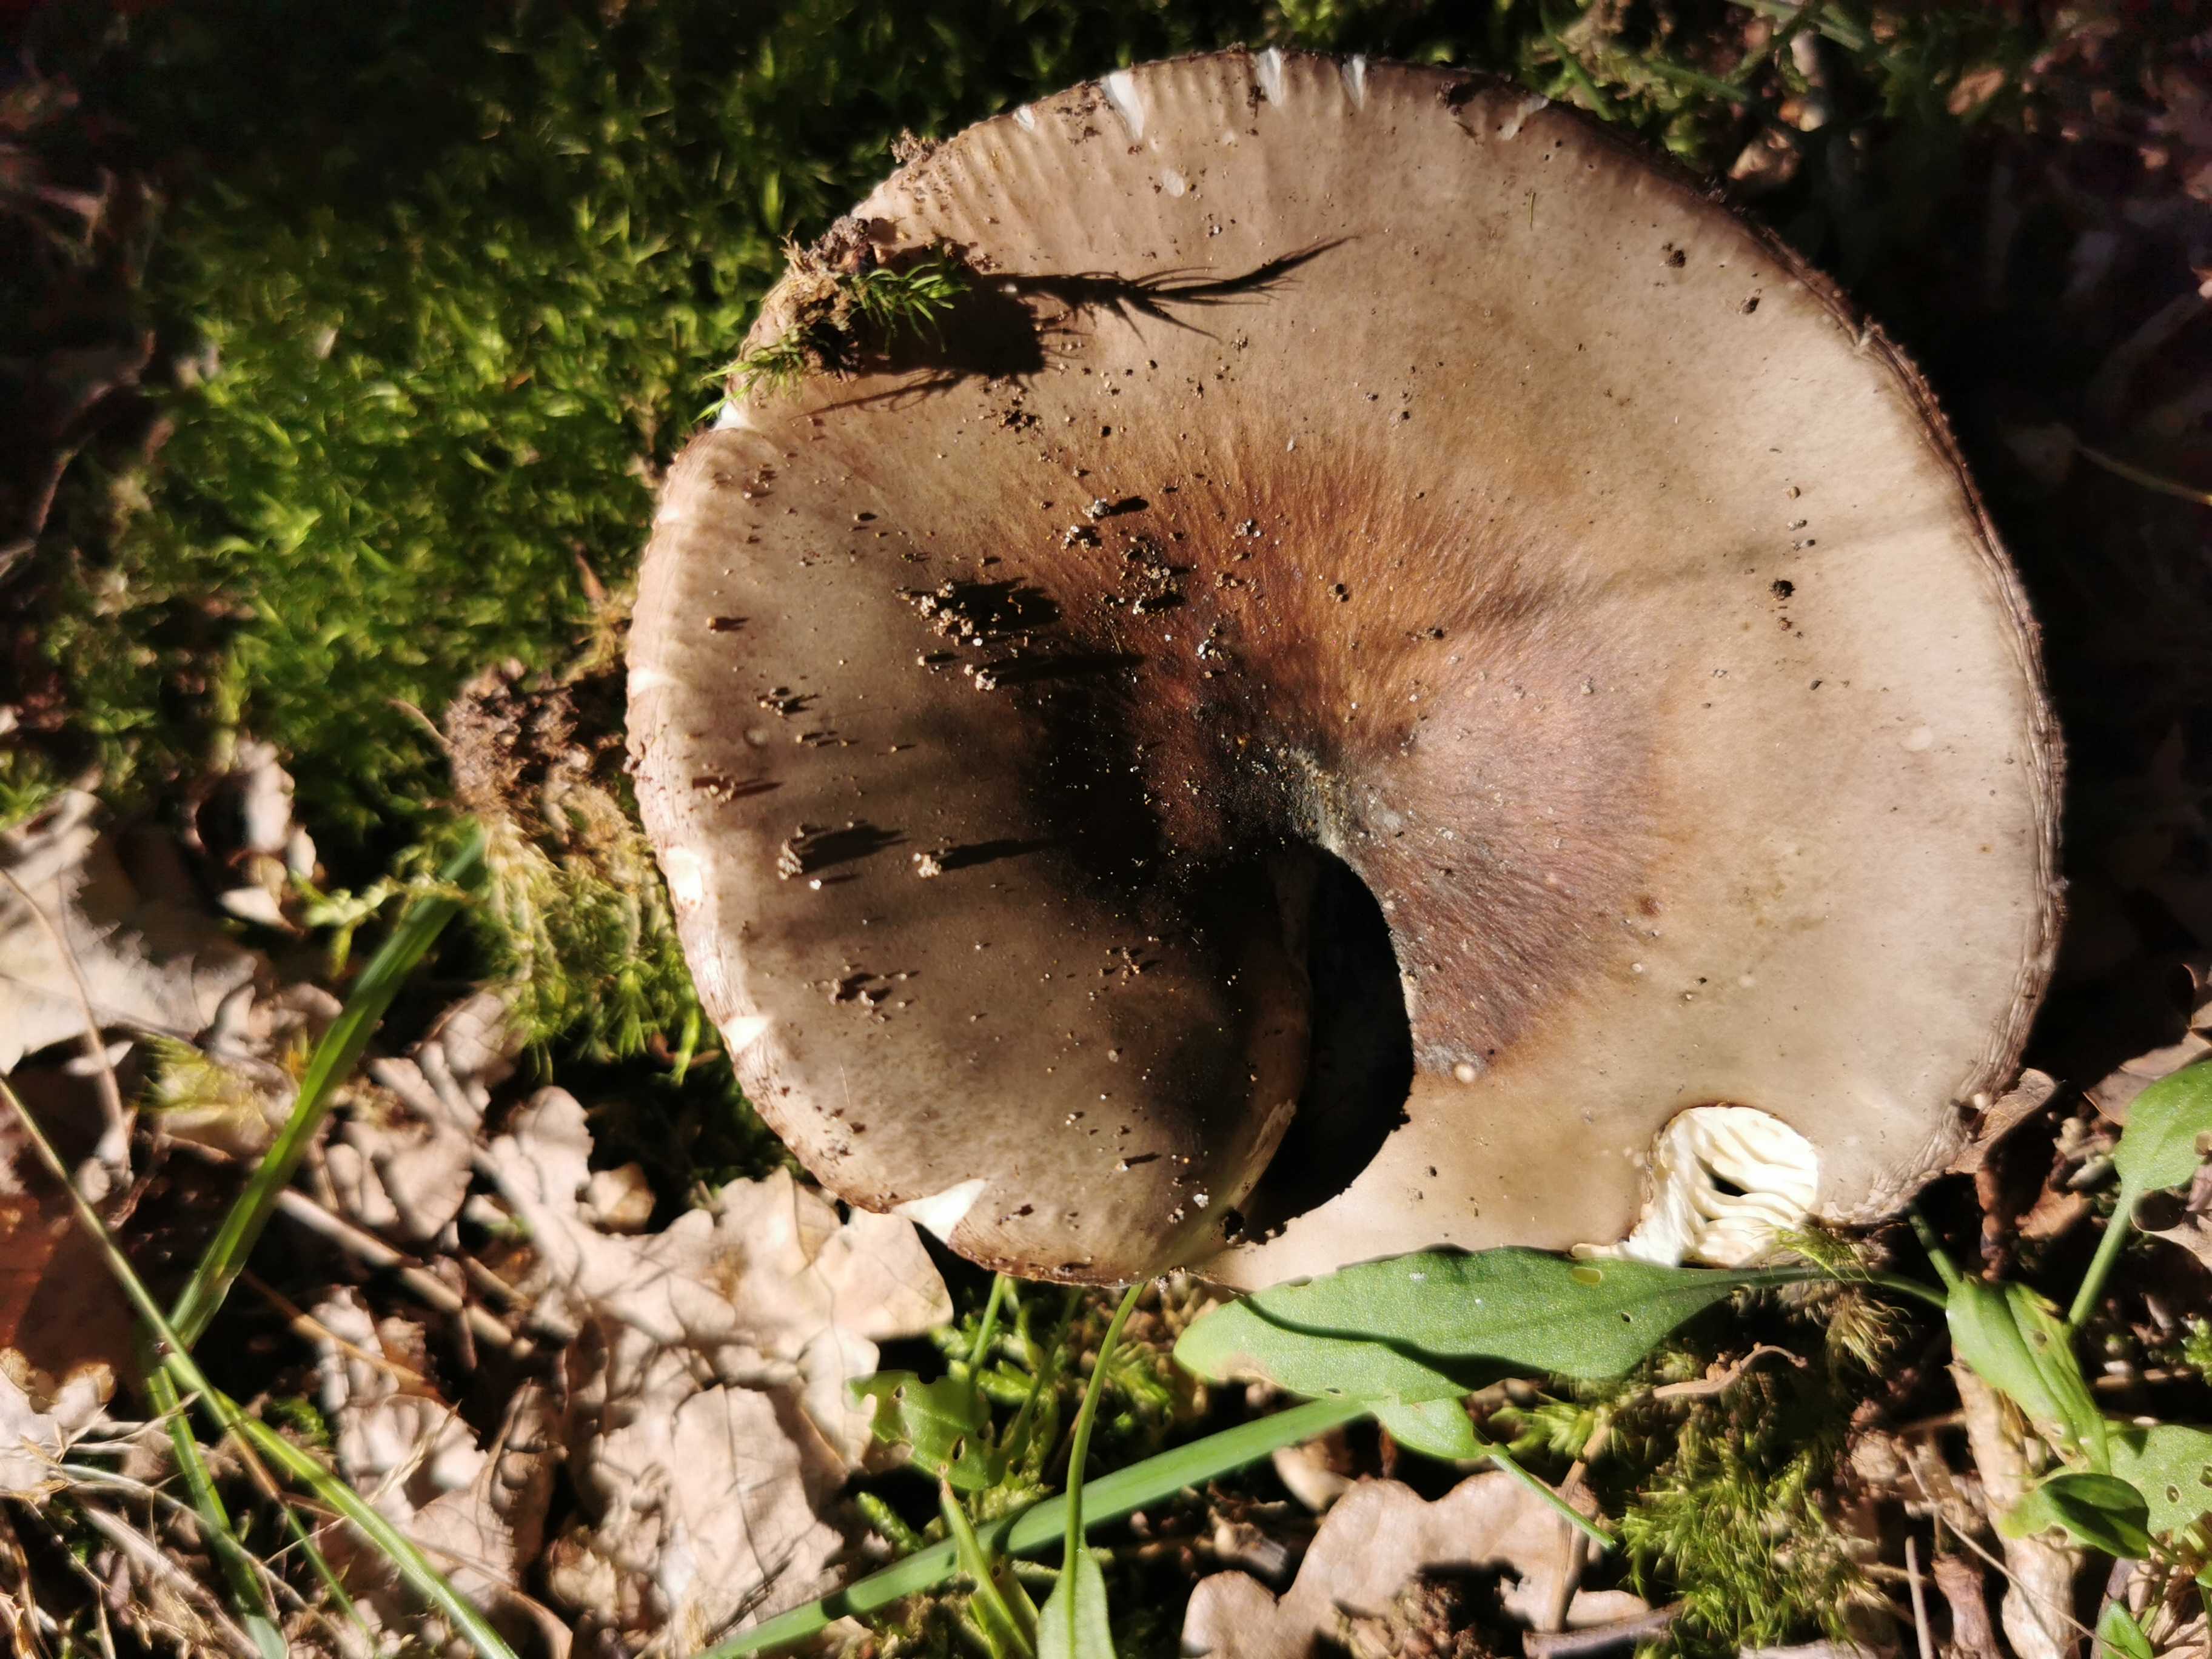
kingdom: Fungi
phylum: Basidiomycota
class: Agaricomycetes
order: Russulales
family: Russulaceae
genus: Russula
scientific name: Russula
